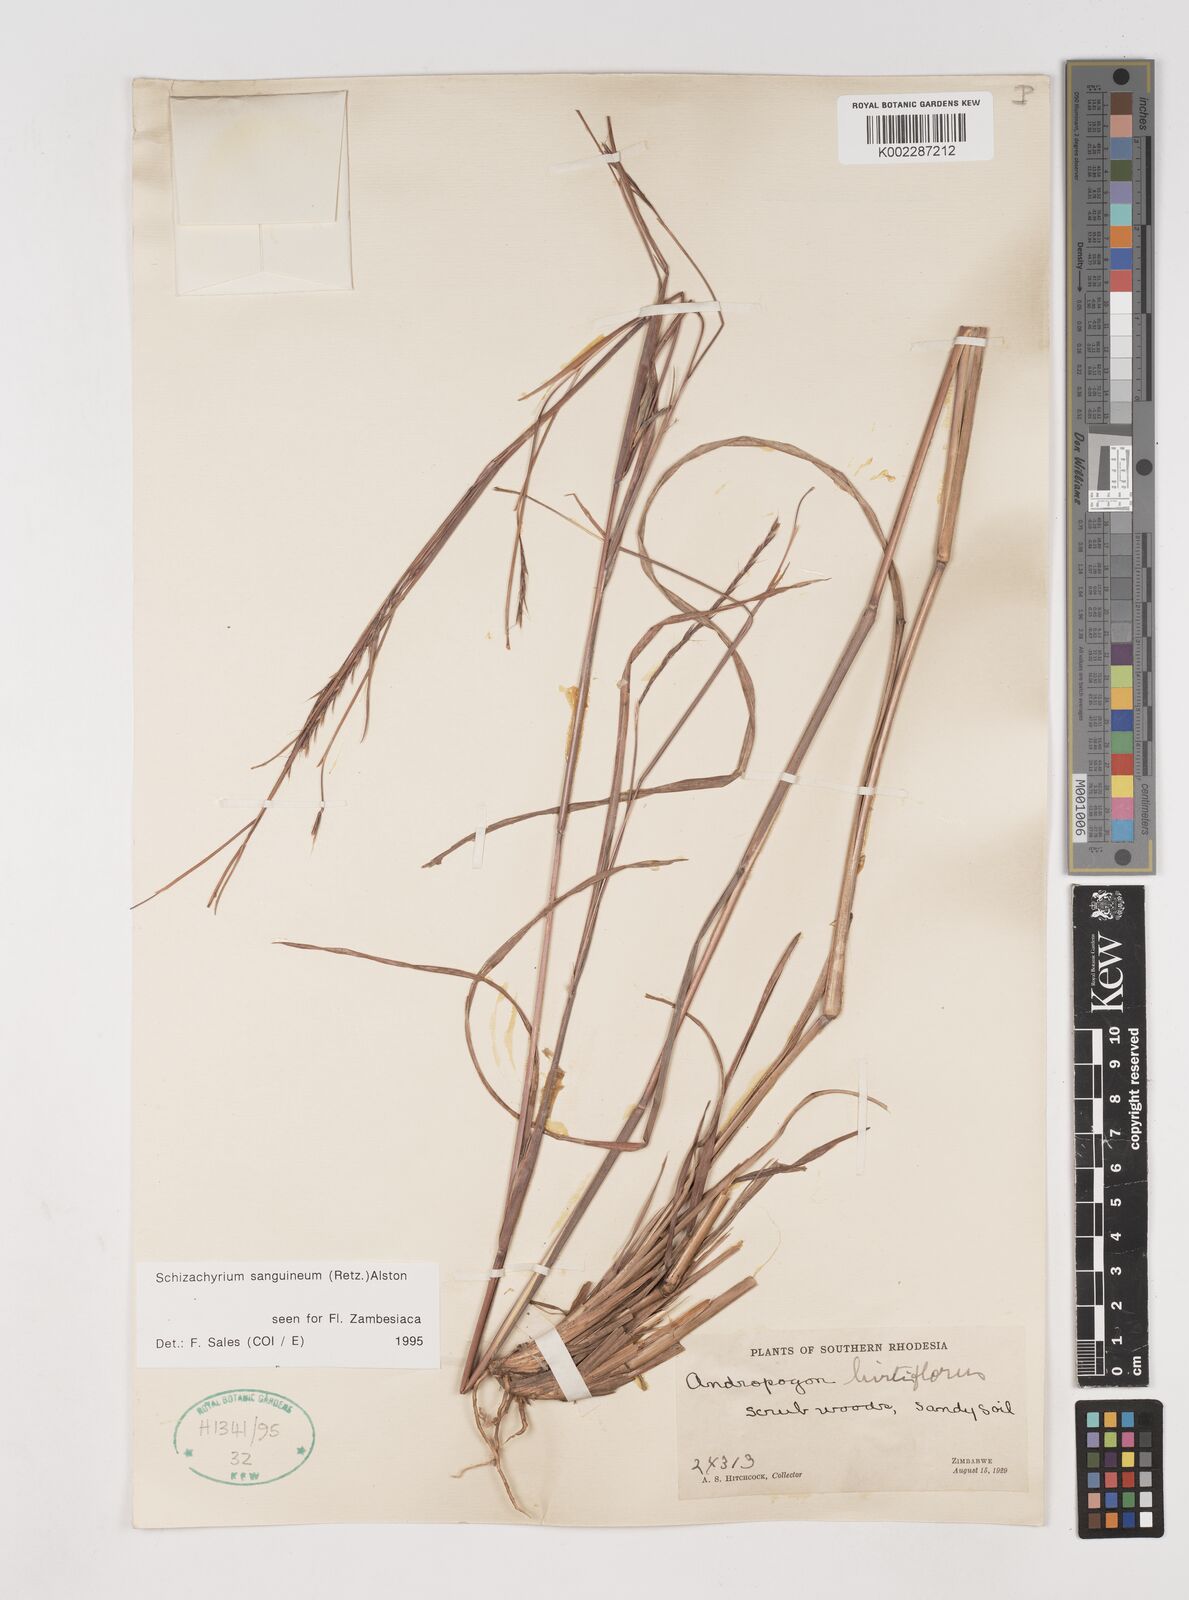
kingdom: Plantae
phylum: Tracheophyta
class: Liliopsida
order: Poales
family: Poaceae
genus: Schizachyrium
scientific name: Schizachyrium sanguineum
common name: Crimson bluestem
